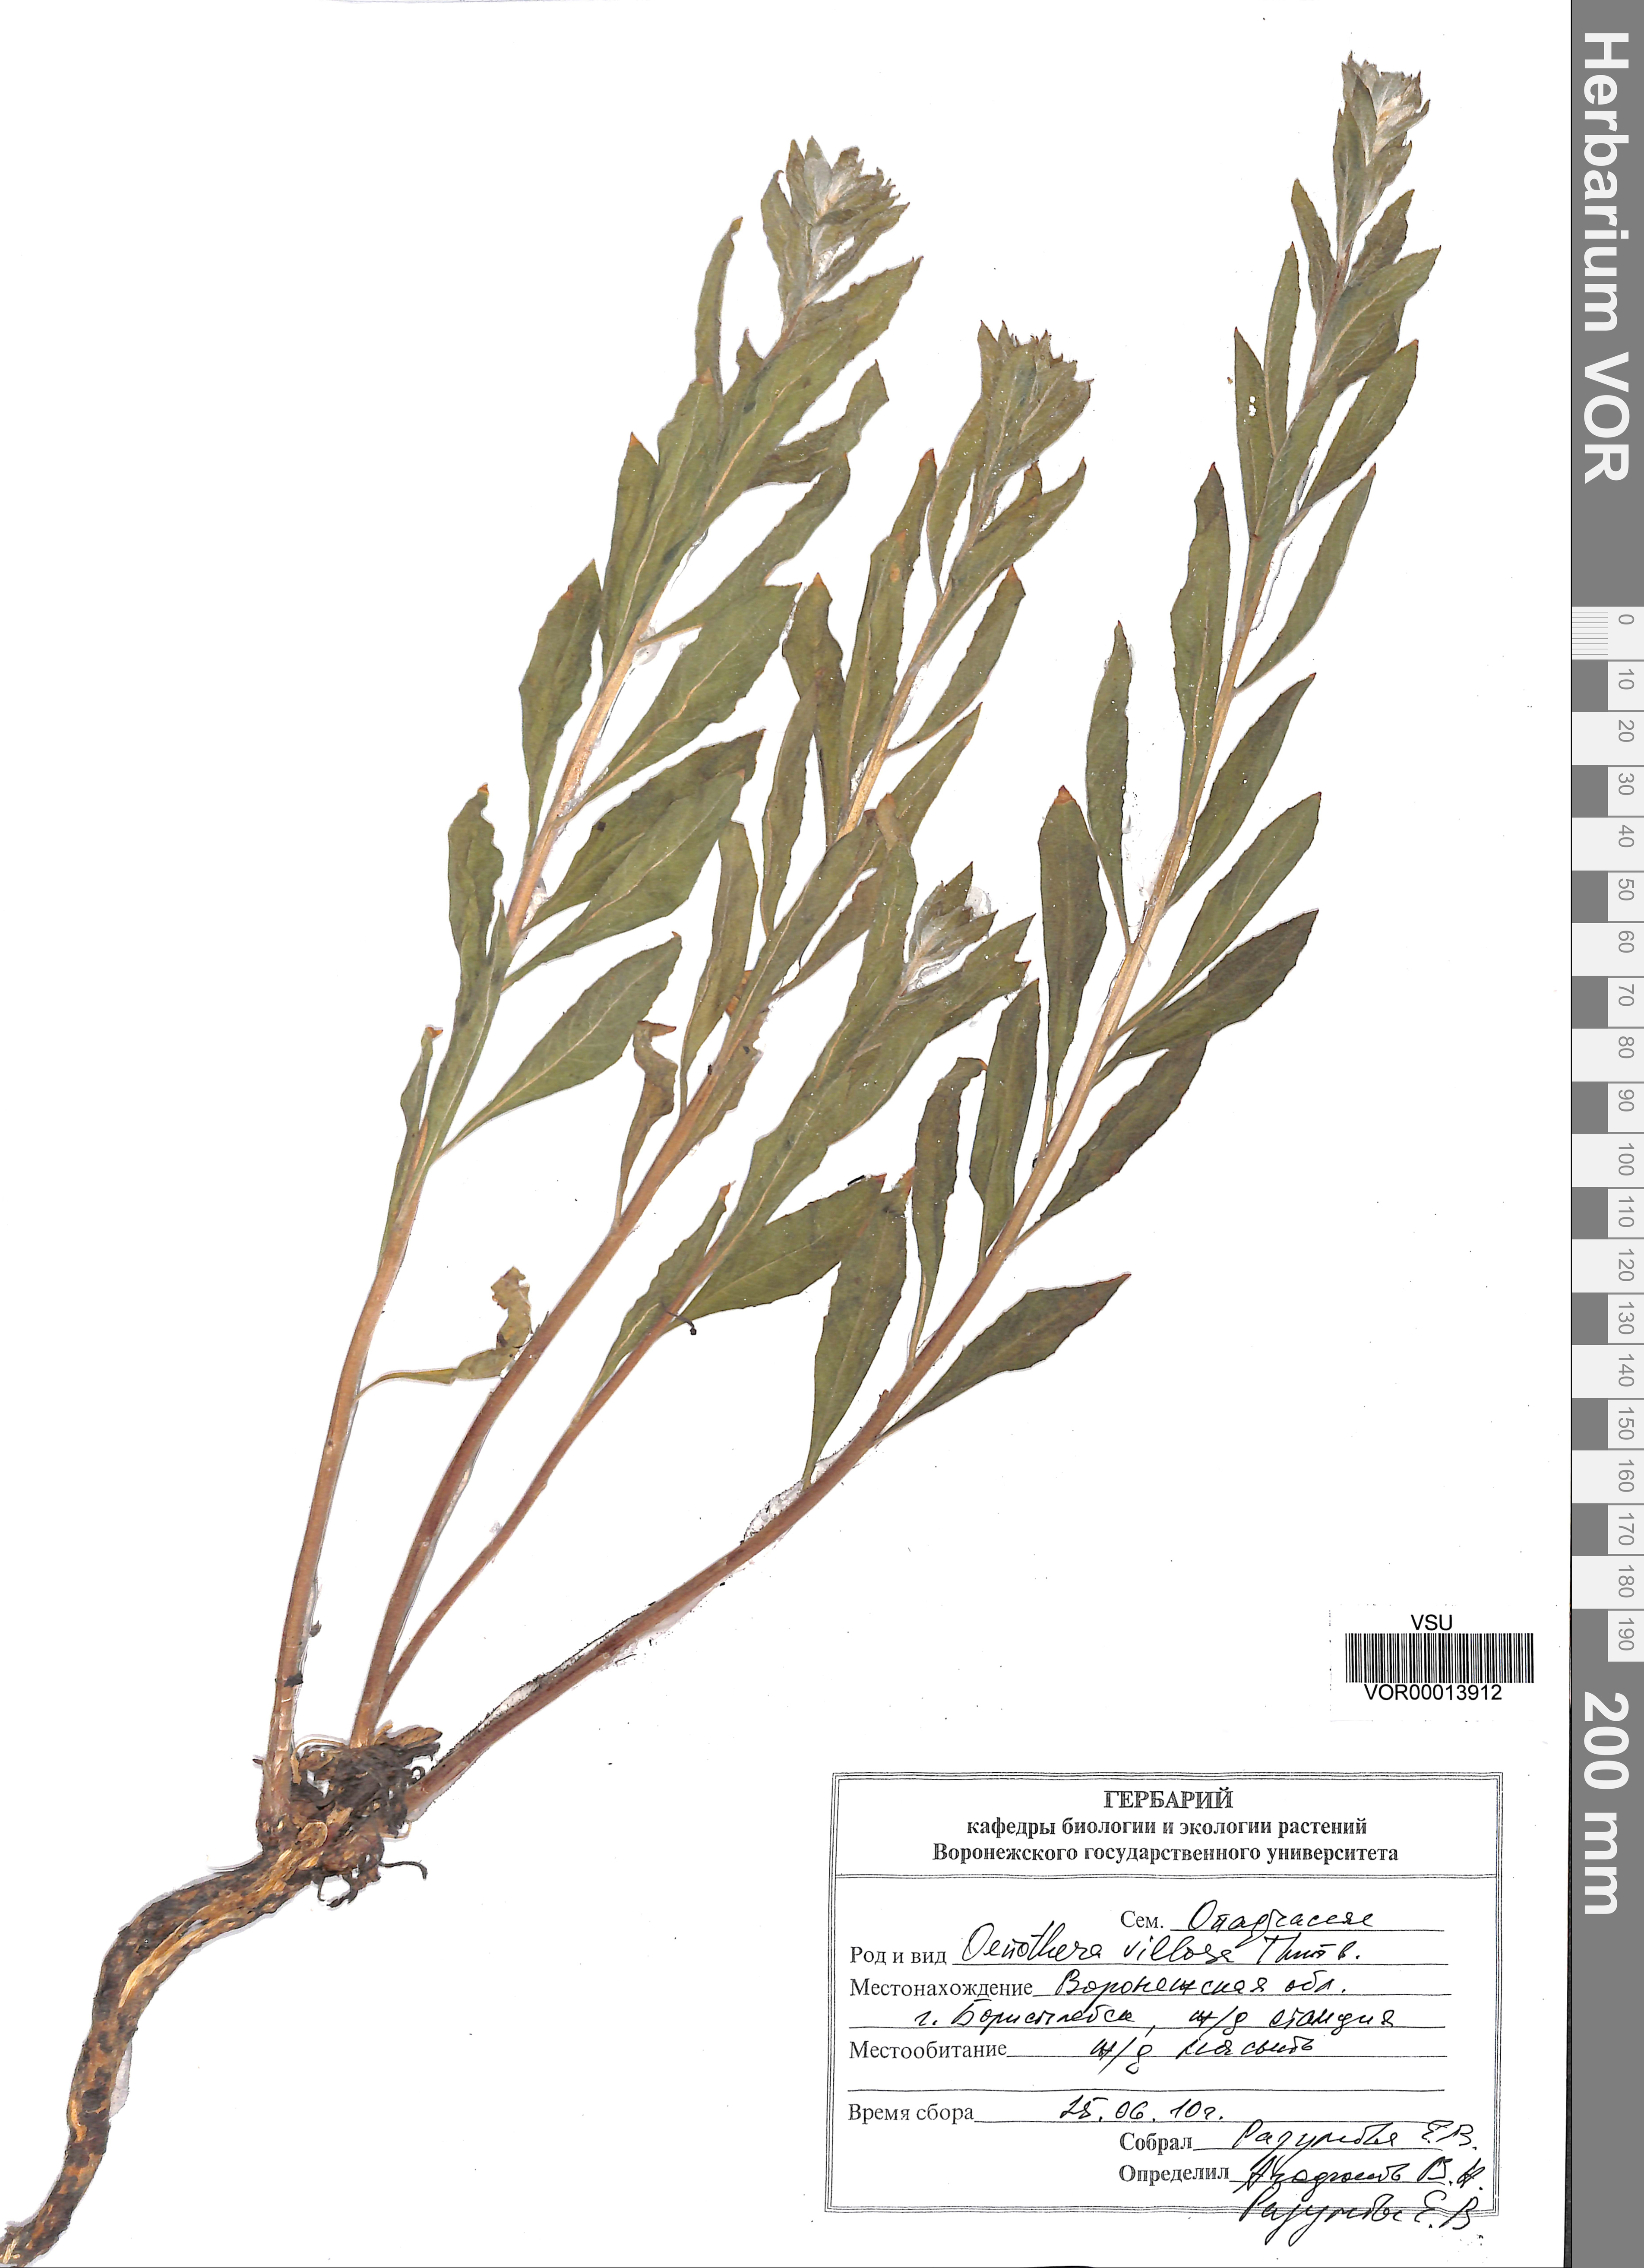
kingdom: Plantae
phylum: Tracheophyta
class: Magnoliopsida
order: Myrtales
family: Onagraceae
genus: Oenothera
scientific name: Oenothera villosa
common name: Hairy evening-primrose
